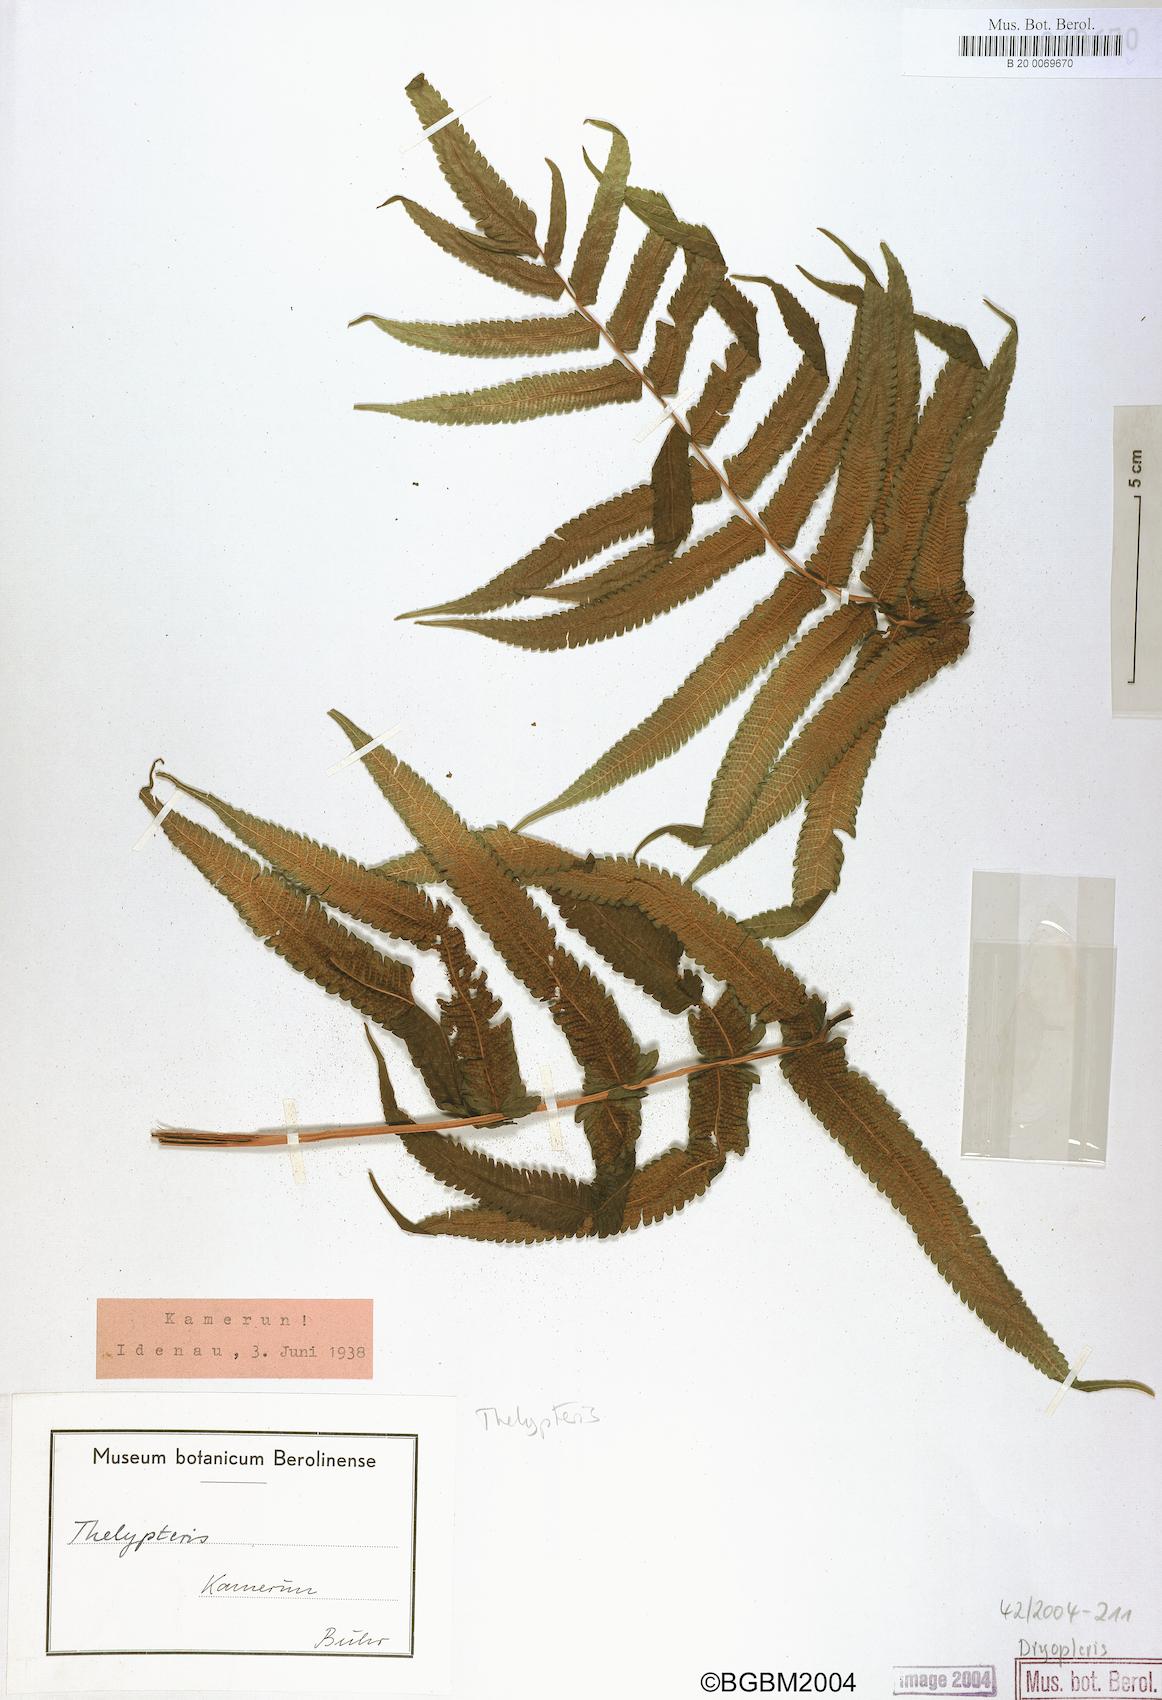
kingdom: Plantae
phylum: Tracheophyta
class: Polypodiopsida
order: Polypodiales
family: Dryopteridaceae
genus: Dryopteris
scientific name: Dryopteris
